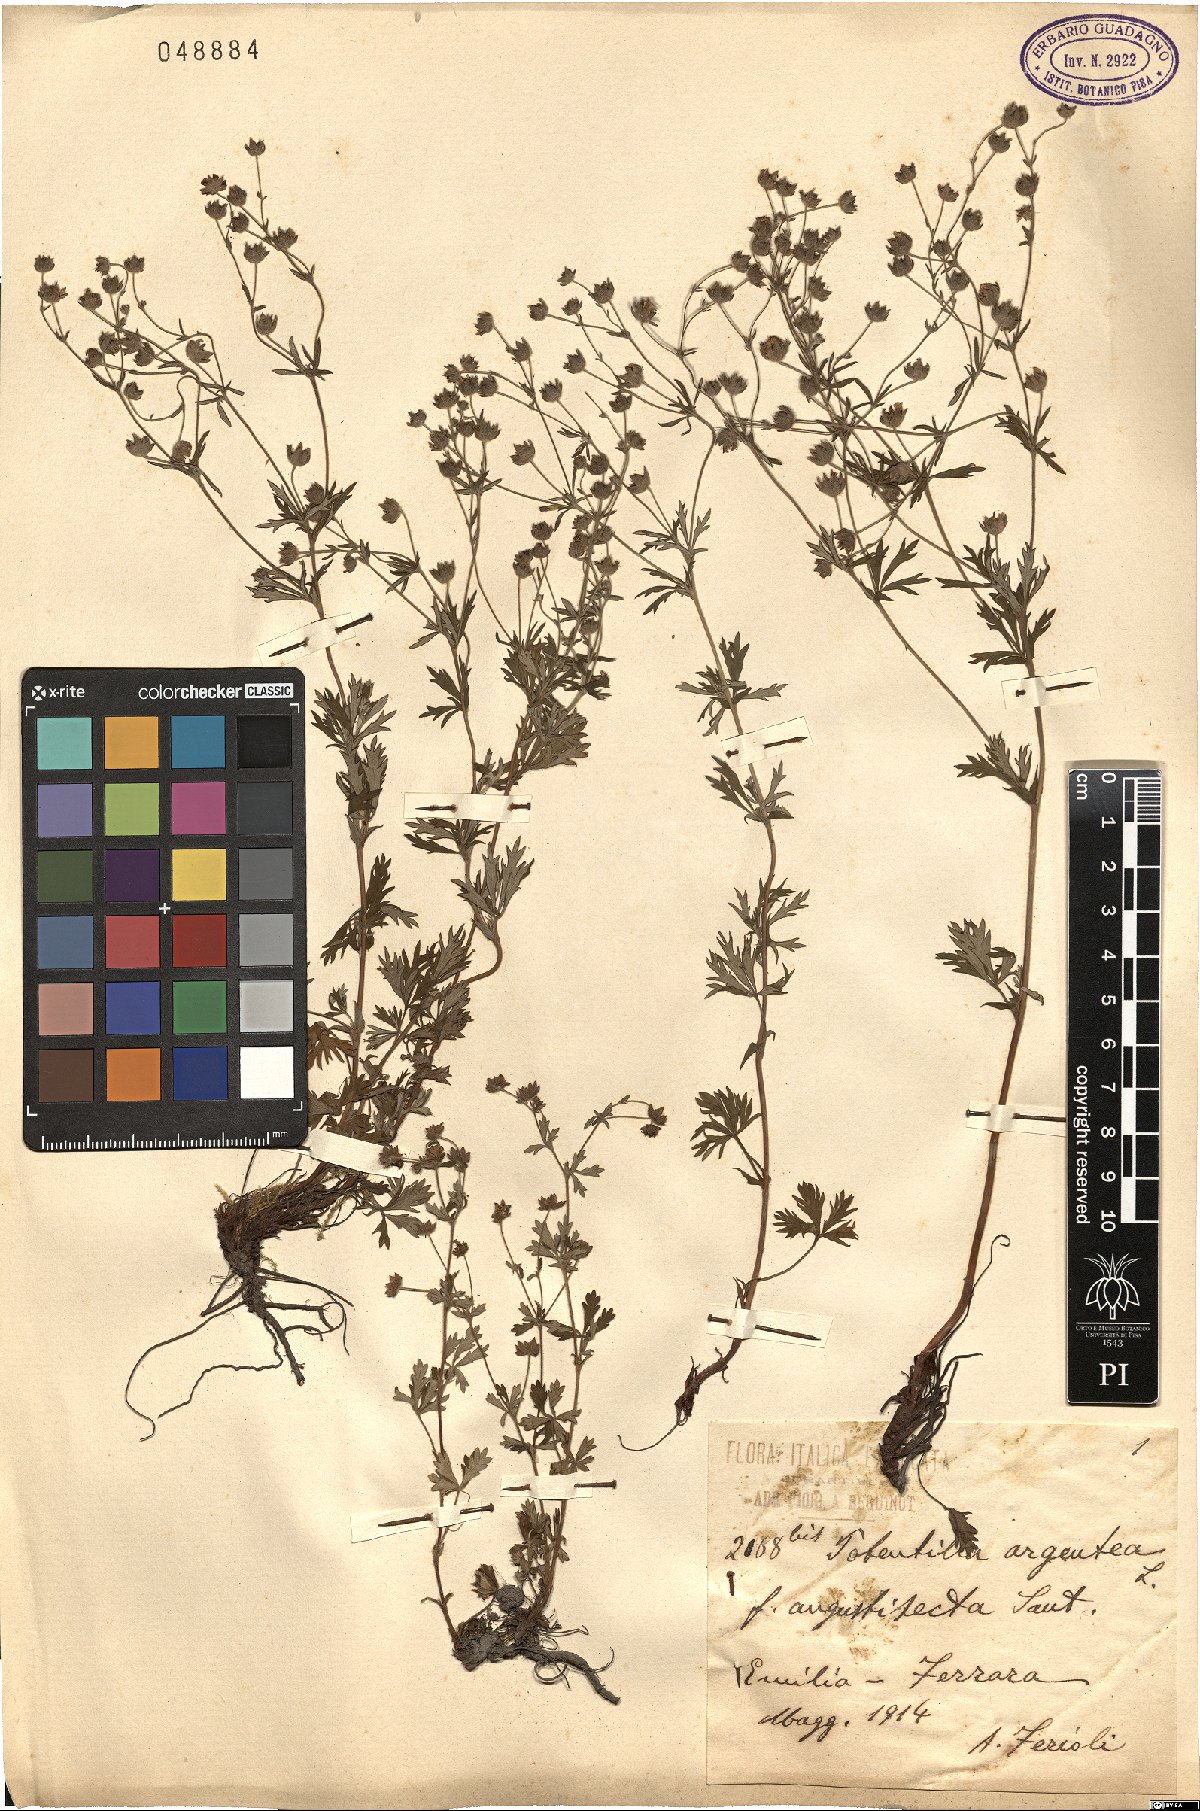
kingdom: Plantae
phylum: Tracheophyta
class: Magnoliopsida
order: Rosales
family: Rosaceae
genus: Potentilla
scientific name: Potentilla argentea
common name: Hoary cinquefoil
